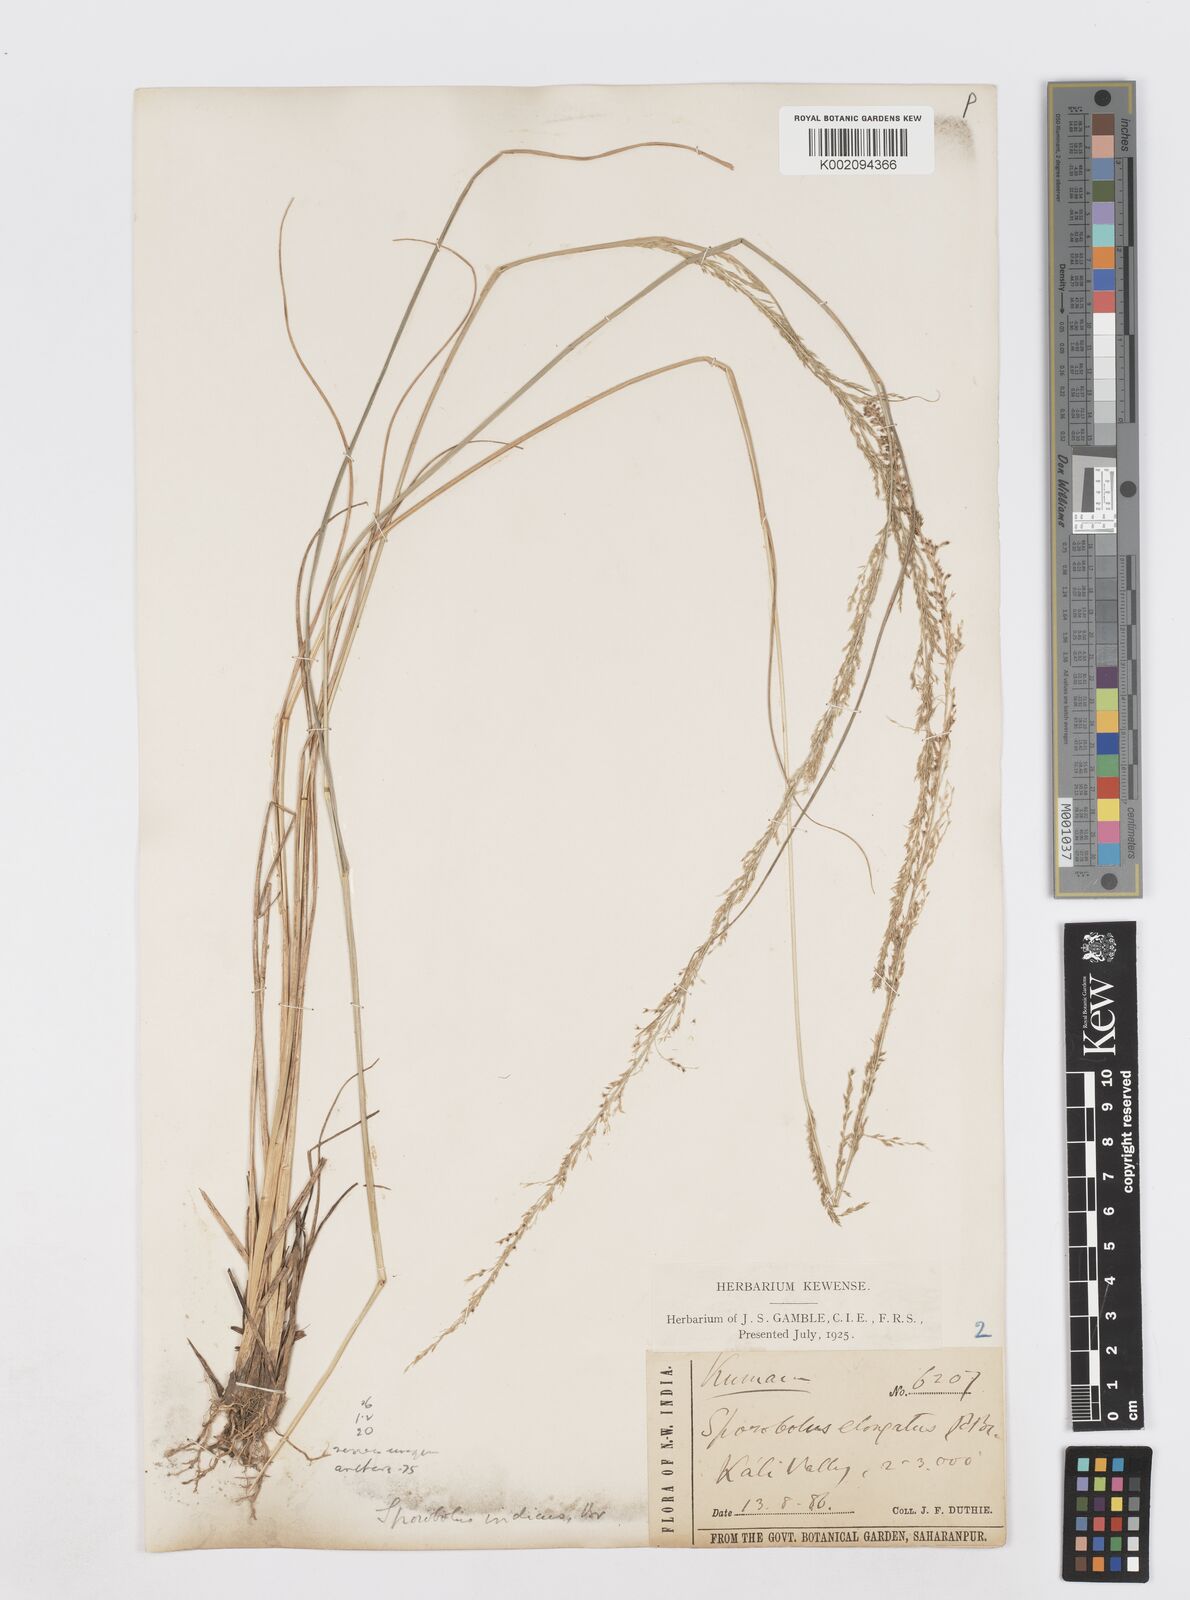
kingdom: Plantae
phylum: Tracheophyta
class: Liliopsida
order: Poales
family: Poaceae
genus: Sporobolus
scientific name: Sporobolus fertilis
